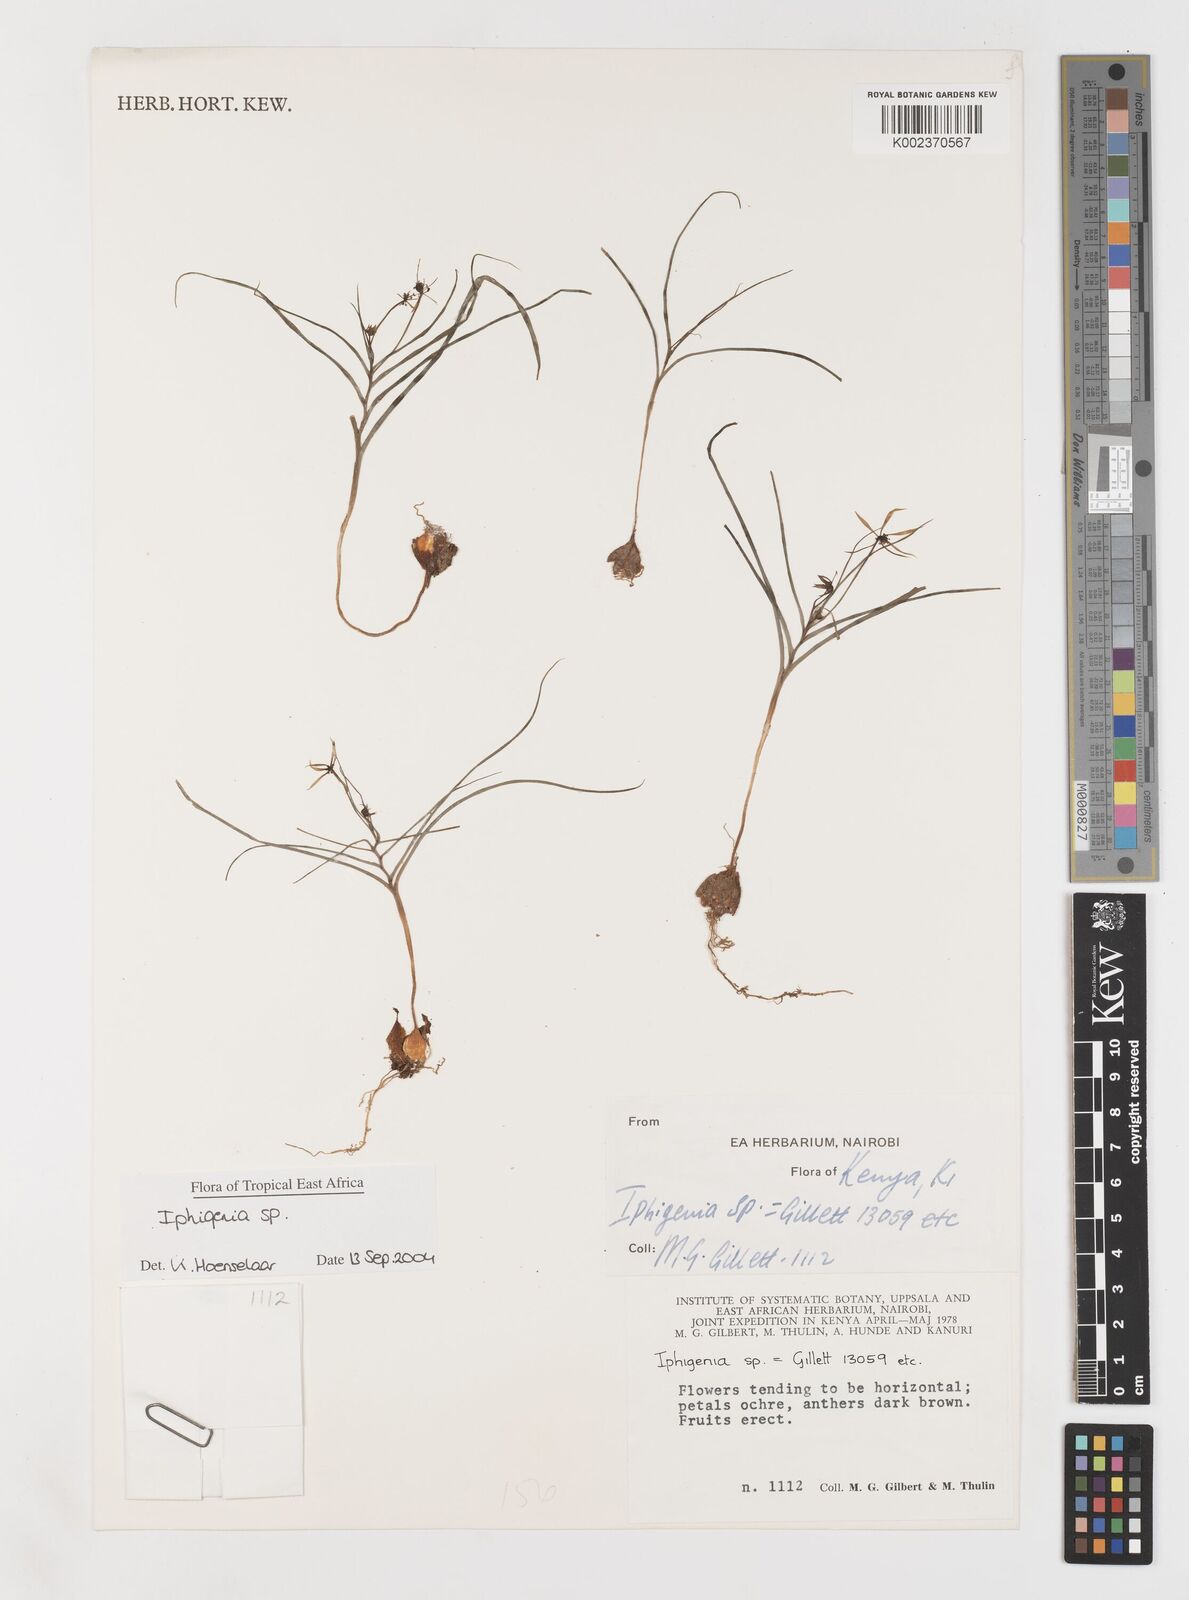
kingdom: Plantae
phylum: Tracheophyta
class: Liliopsida
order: Liliales
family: Colchicaceae
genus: Iphigenia
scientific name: Iphigenia
